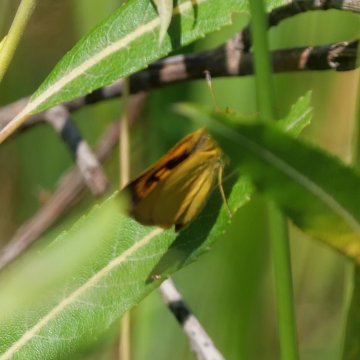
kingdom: Animalia
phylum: Arthropoda
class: Insecta
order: Lepidoptera
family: Hesperiidae
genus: Atrytone
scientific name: Atrytone delaware
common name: Delaware Skipper
